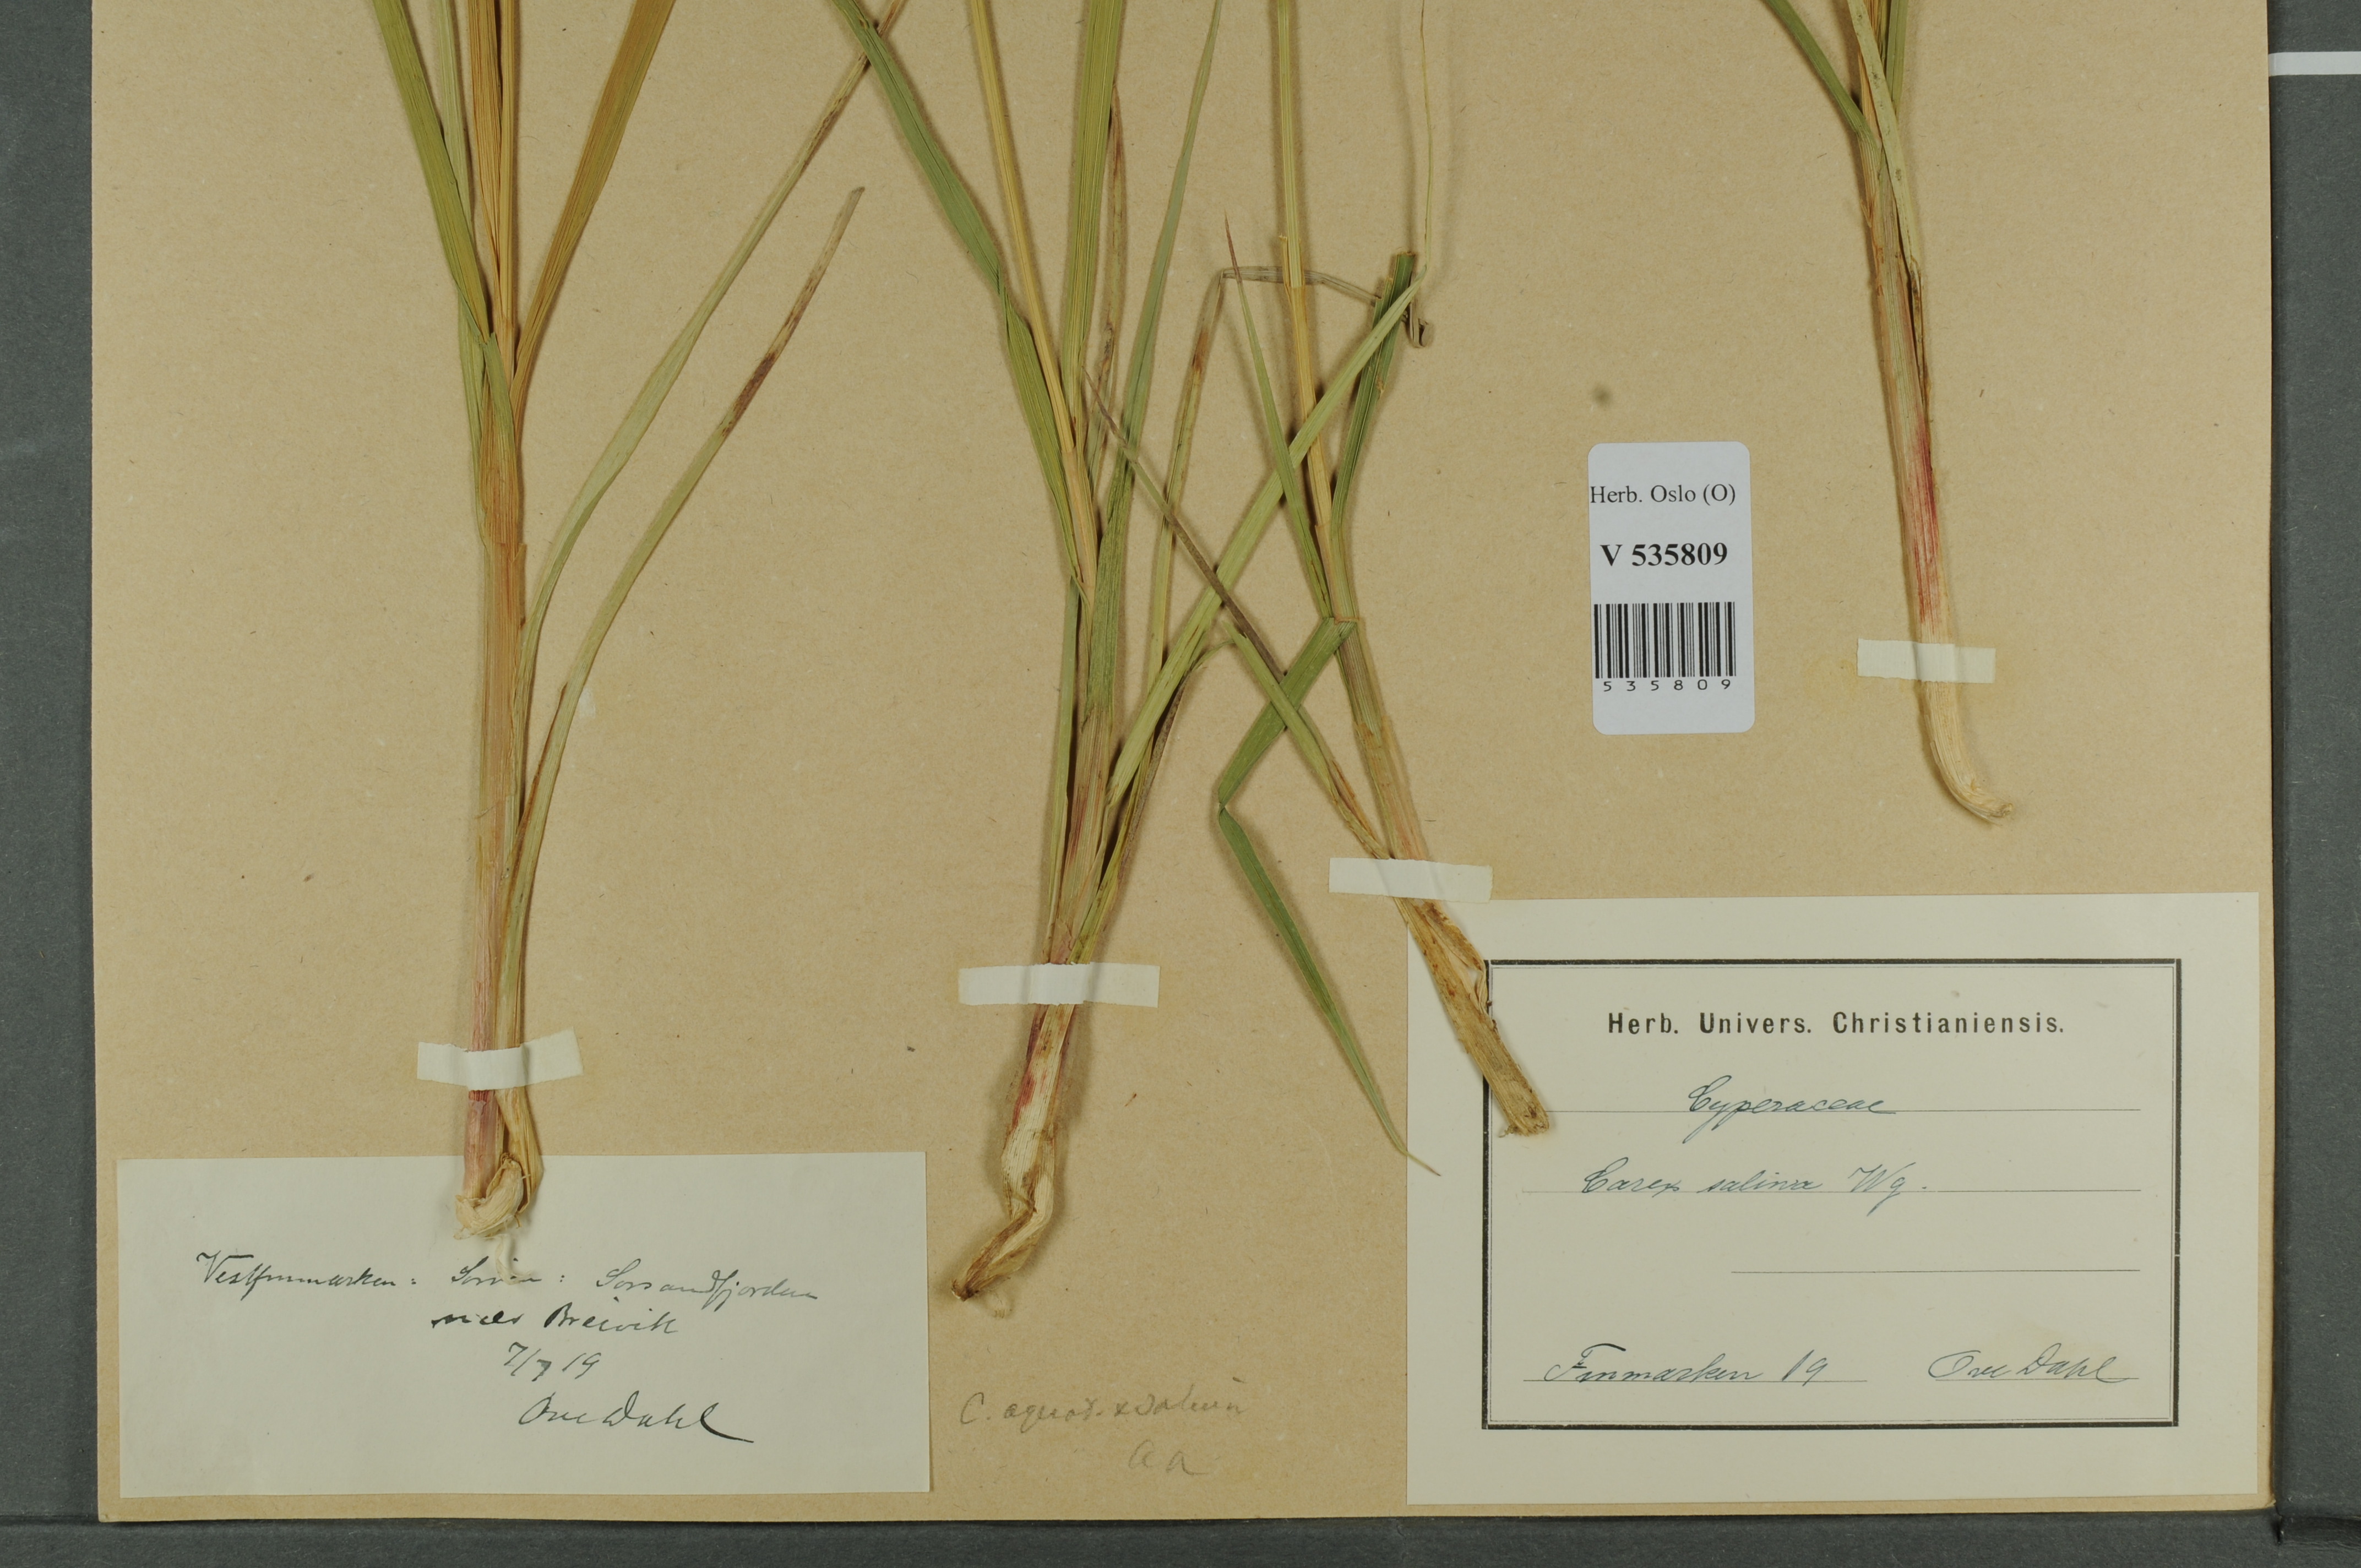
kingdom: Plantae
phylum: Tracheophyta
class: Liliopsida
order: Poales
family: Cyperaceae
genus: Carex
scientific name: Carex
